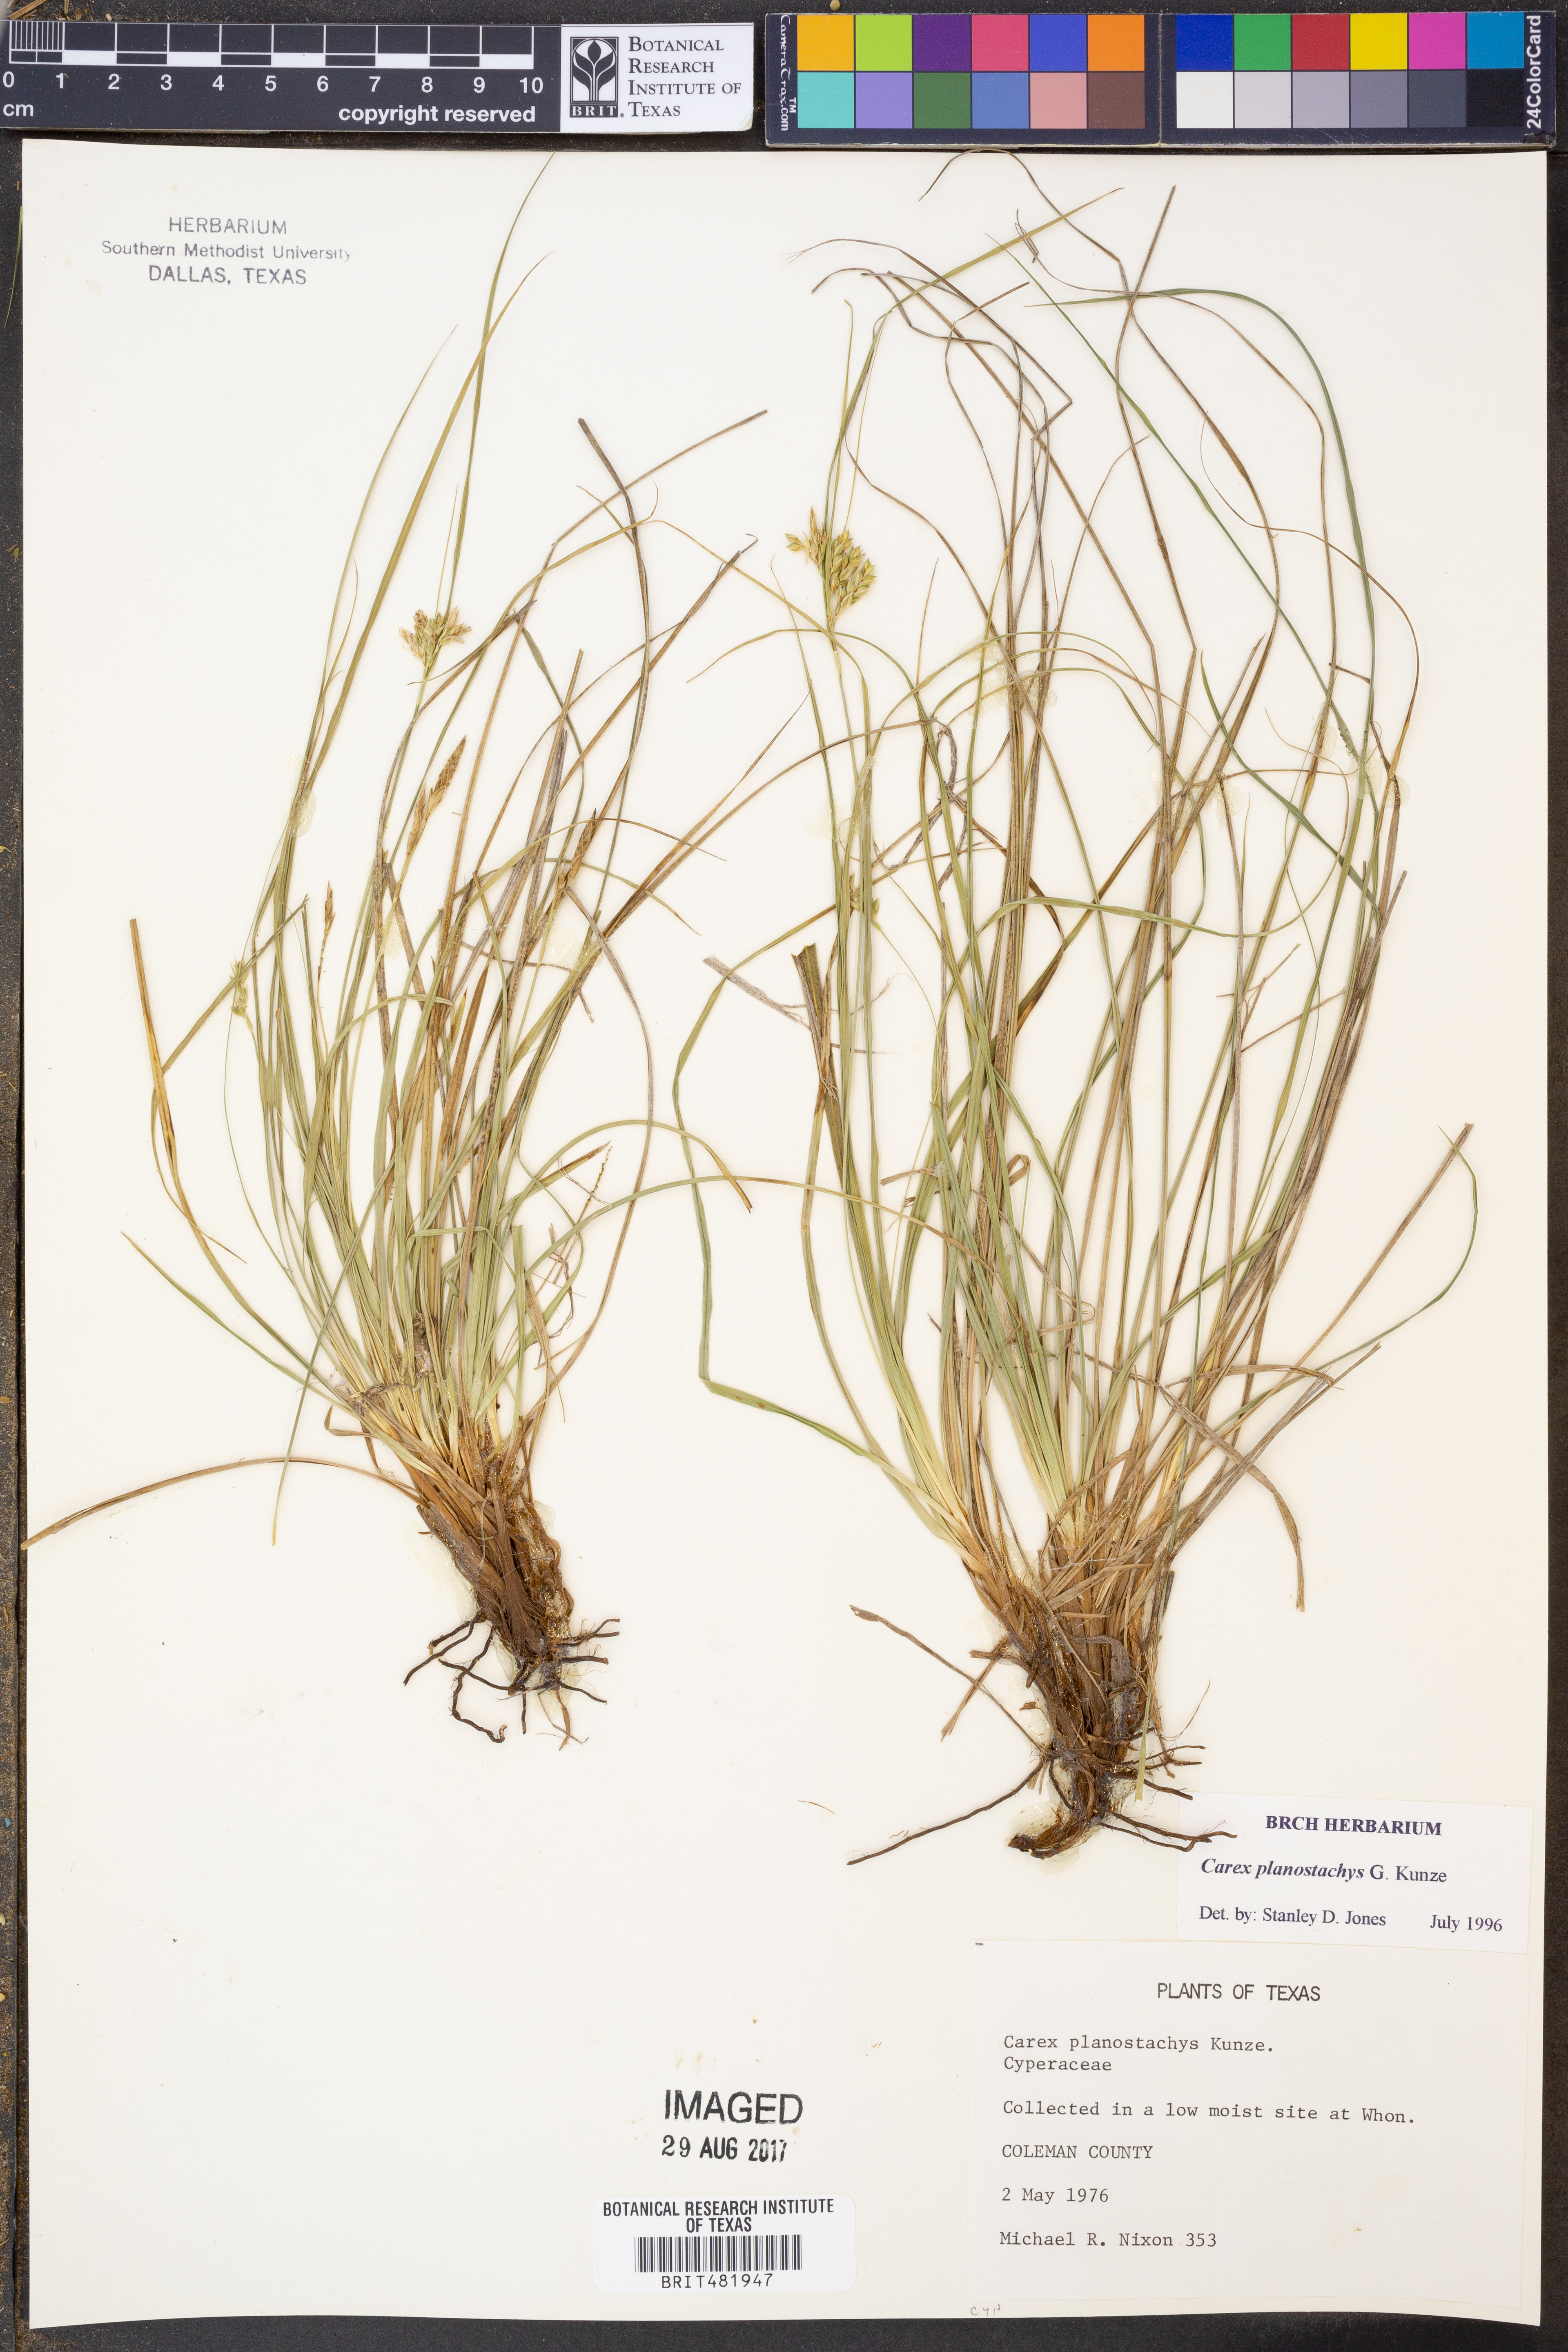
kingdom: Plantae
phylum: Tracheophyta
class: Liliopsida
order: Poales
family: Cyperaceae
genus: Carex
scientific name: Carex planostachys
